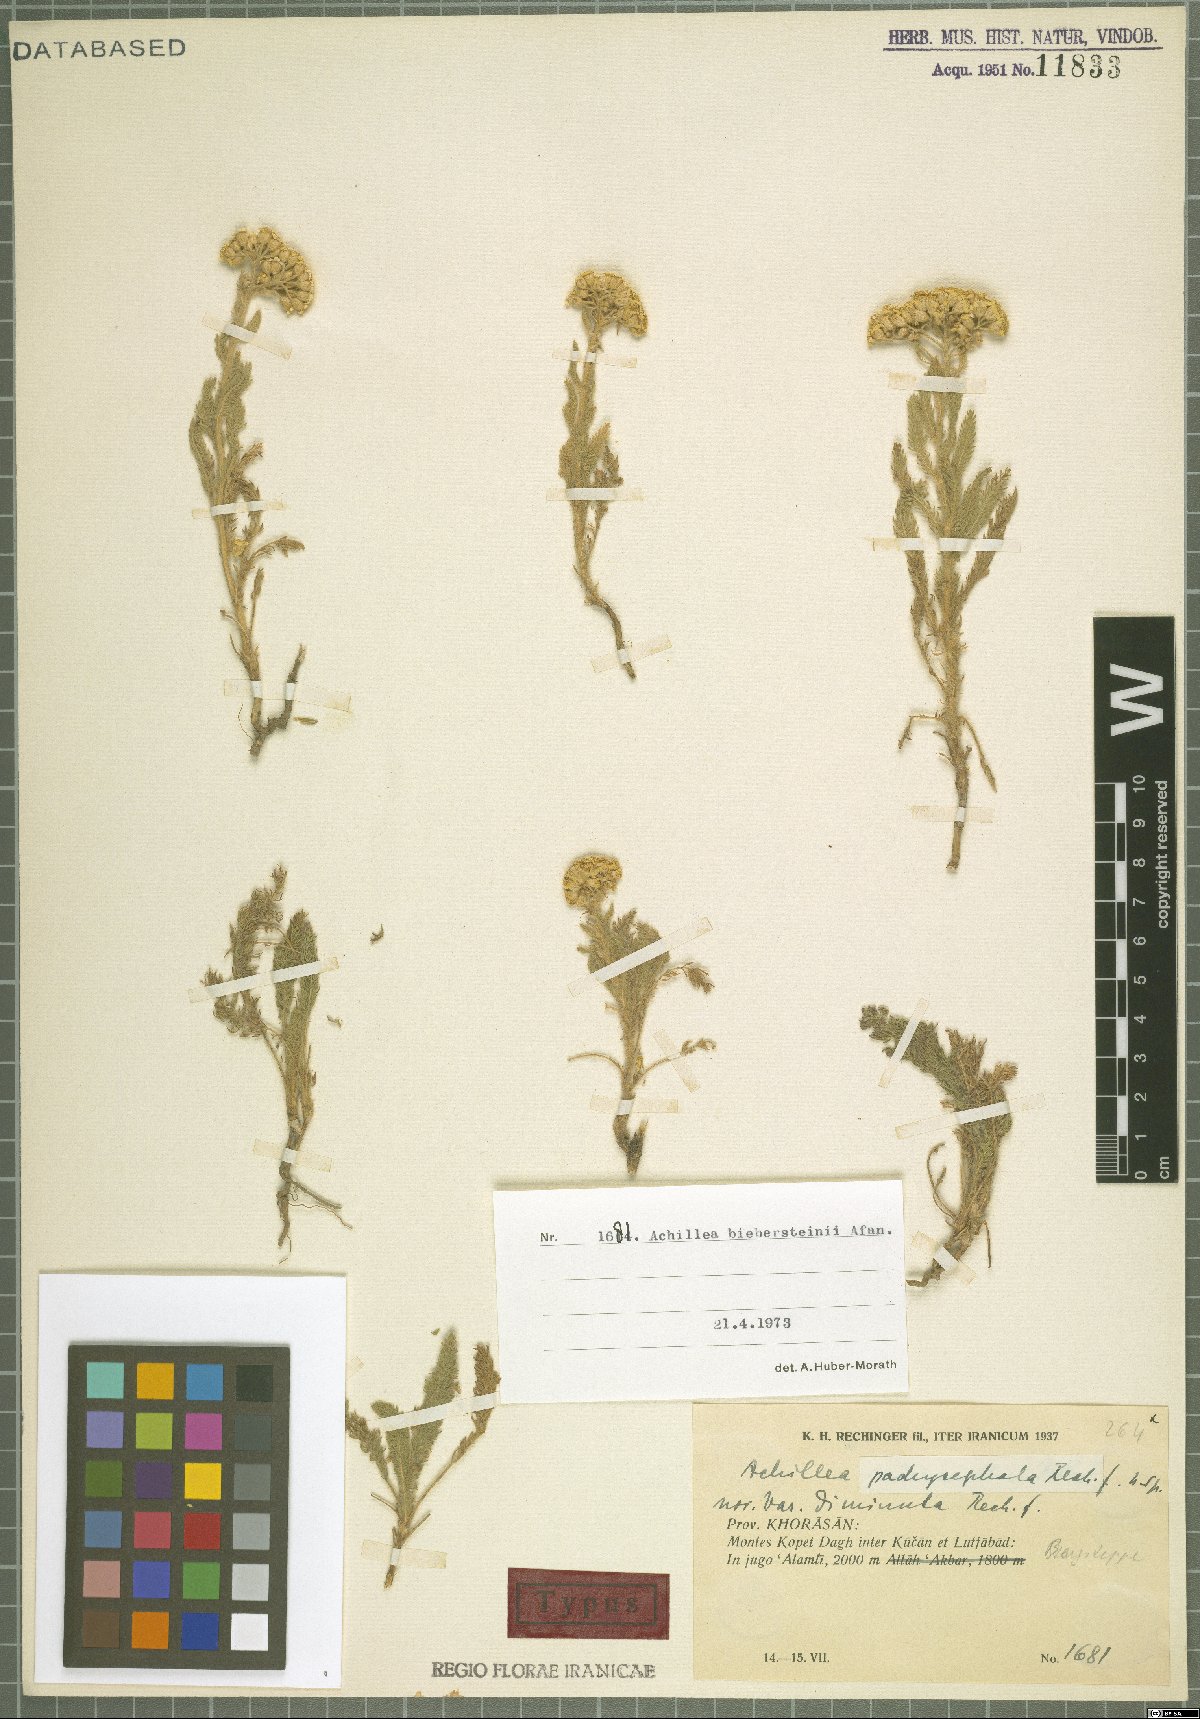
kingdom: Plantae
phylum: Tracheophyta
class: Magnoliopsida
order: Asterales
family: Asteraceae
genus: Achillea
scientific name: Achillea arabica
